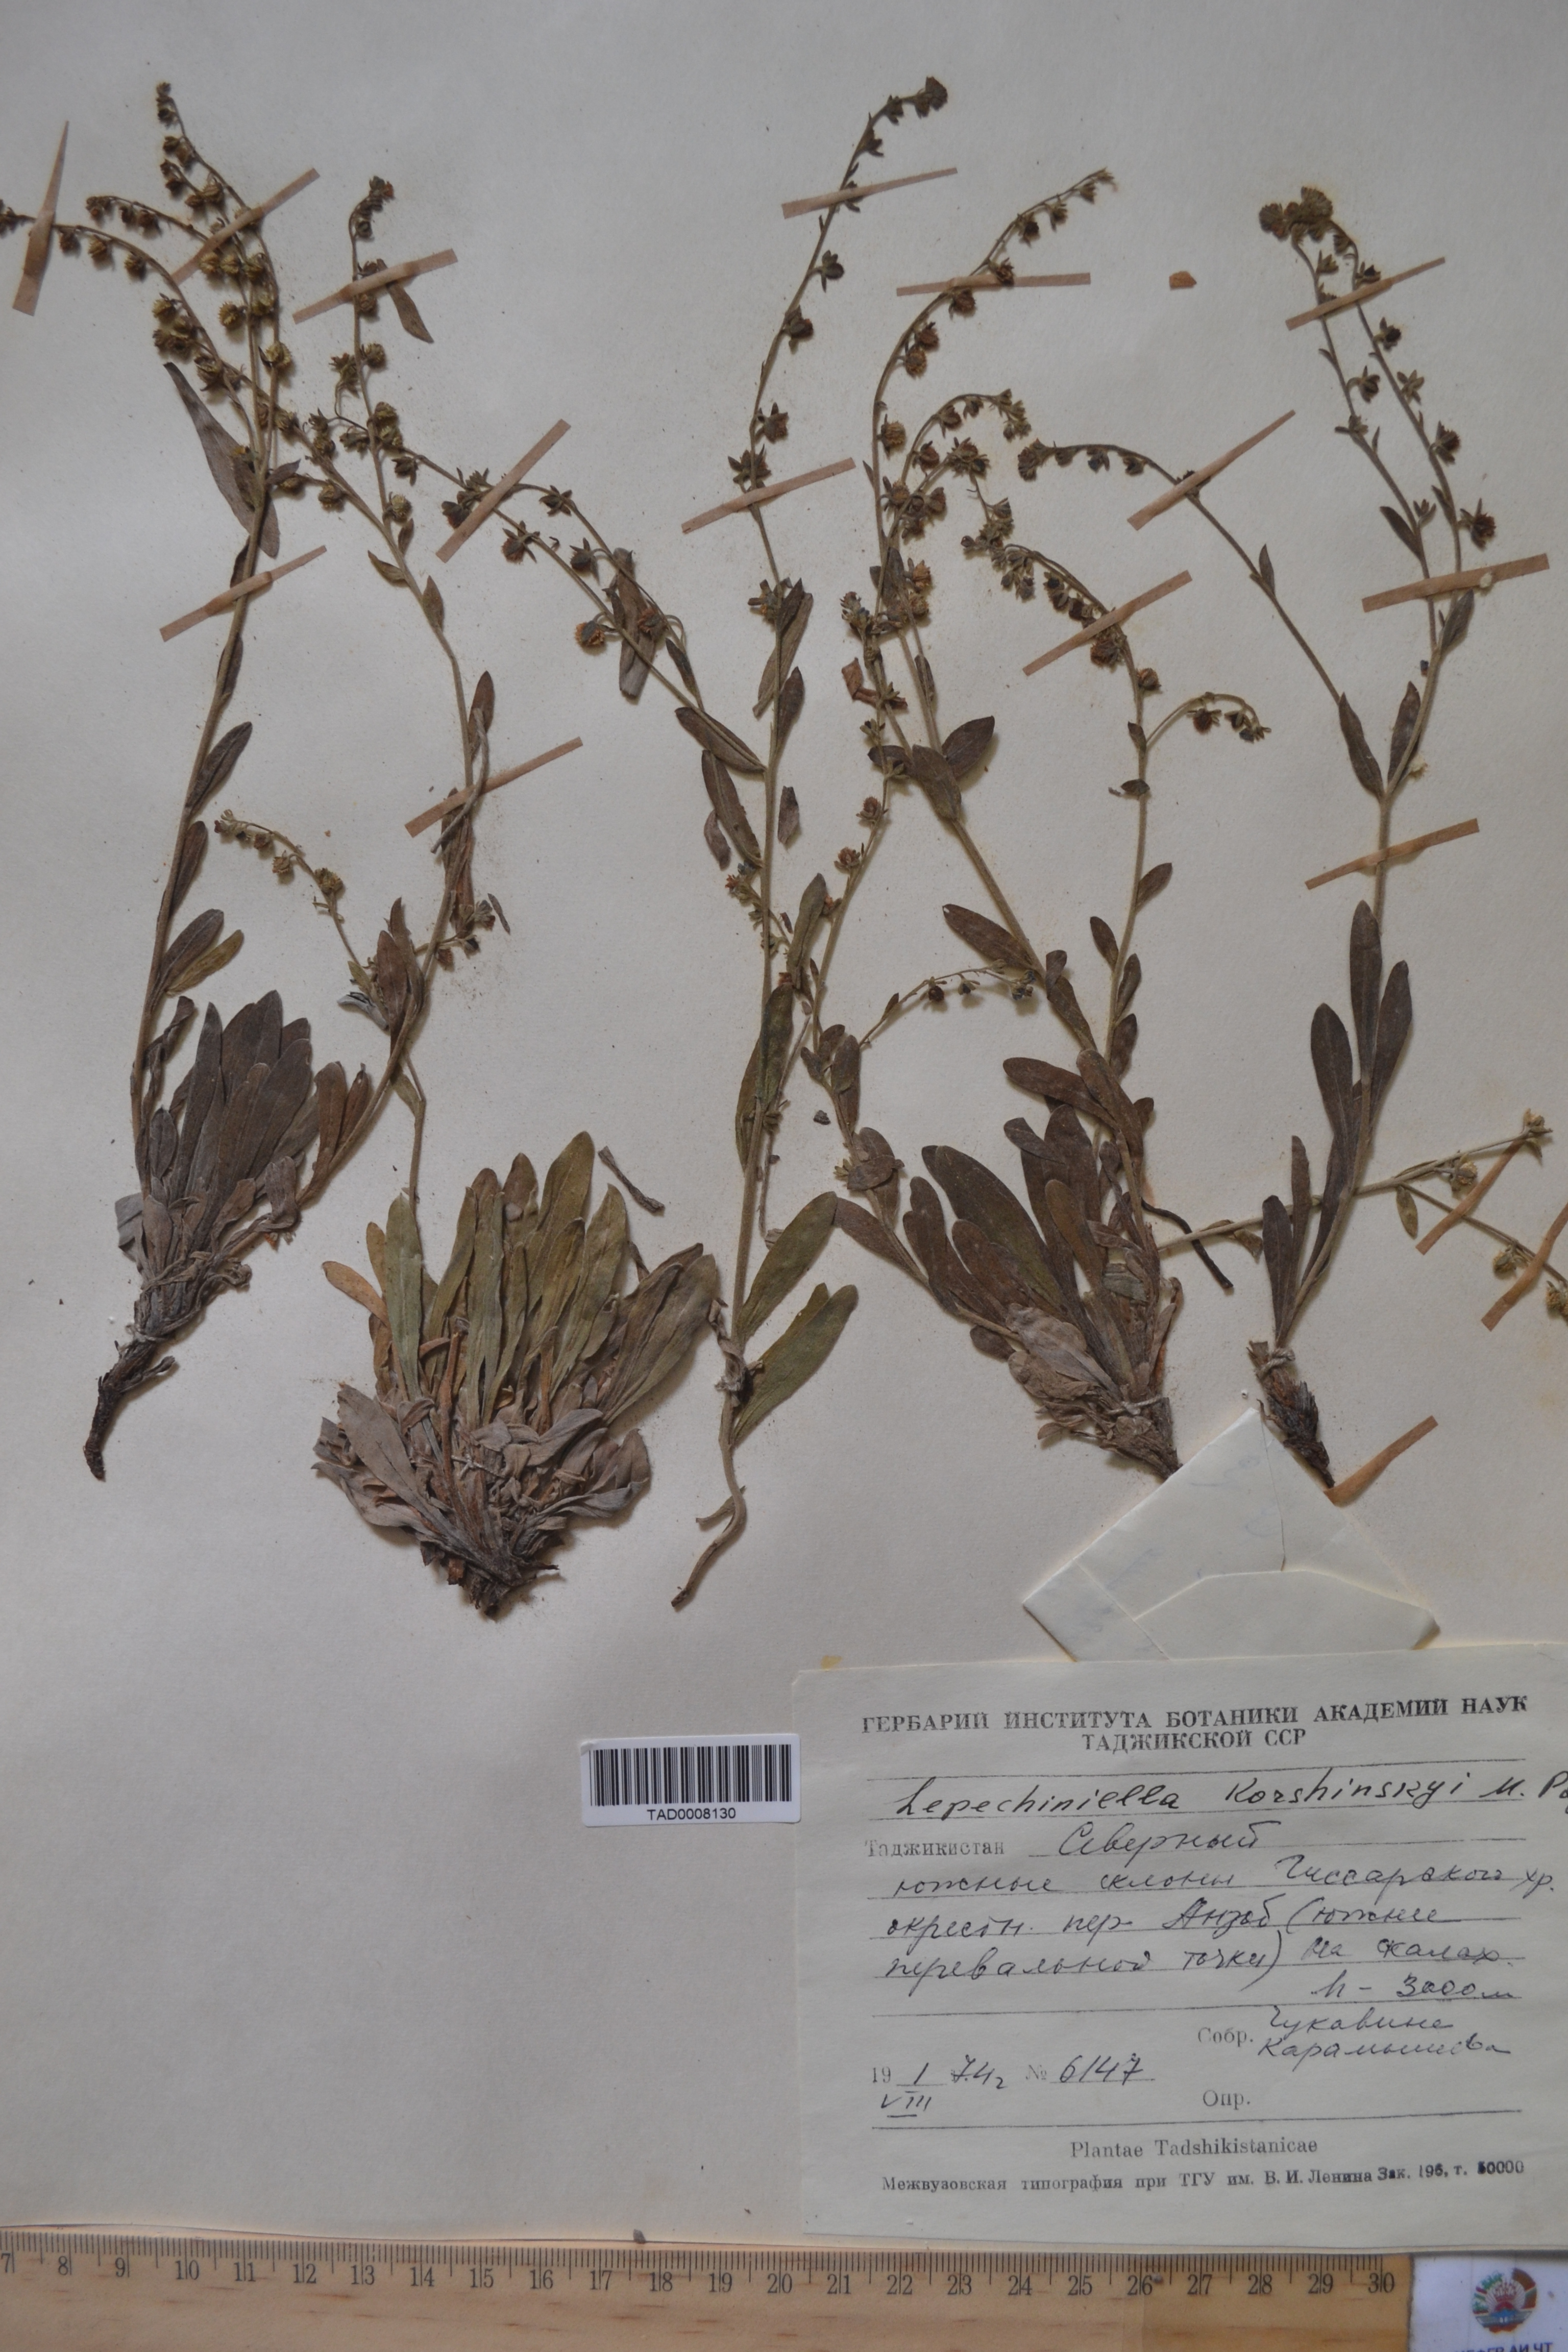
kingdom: Plantae
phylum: Tracheophyta
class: Magnoliopsida
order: Boraginales
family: Boraginaceae
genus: Lepechiniella
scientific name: Lepechiniella
